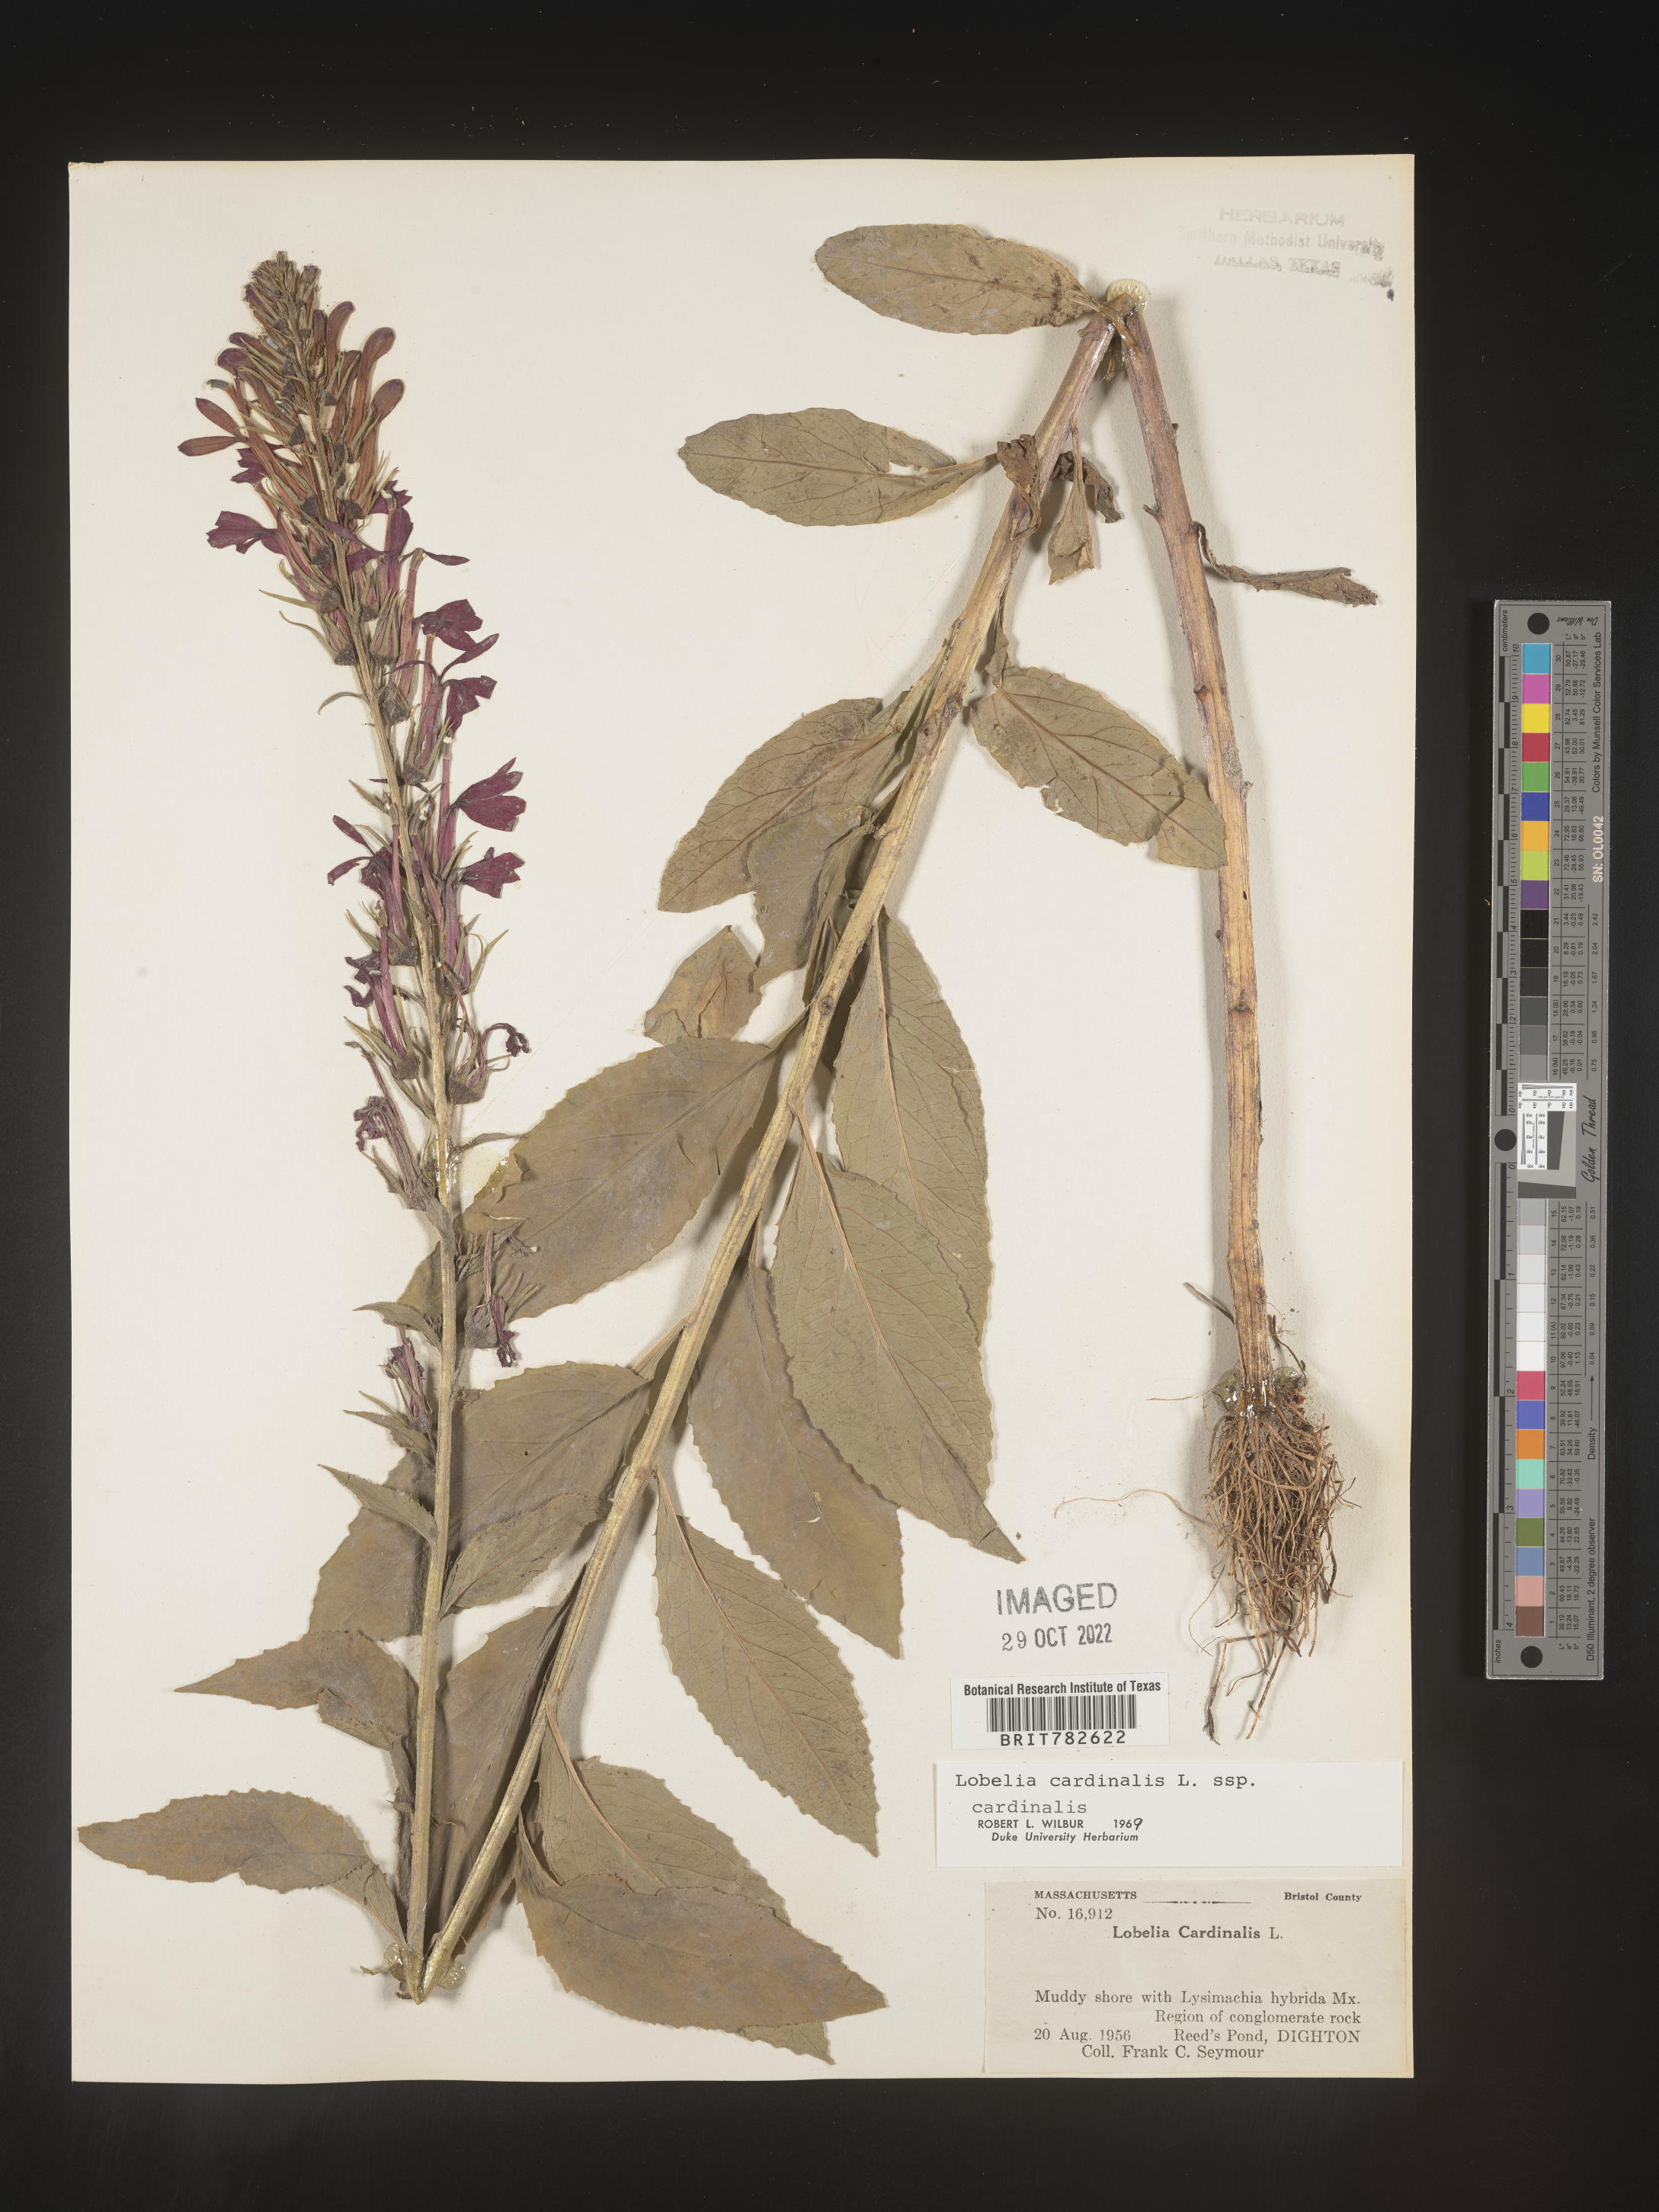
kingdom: Plantae
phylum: Tracheophyta
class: Magnoliopsida
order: Asterales
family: Campanulaceae
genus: Lobelia
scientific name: Lobelia cardinalis
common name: Cardinal flower
